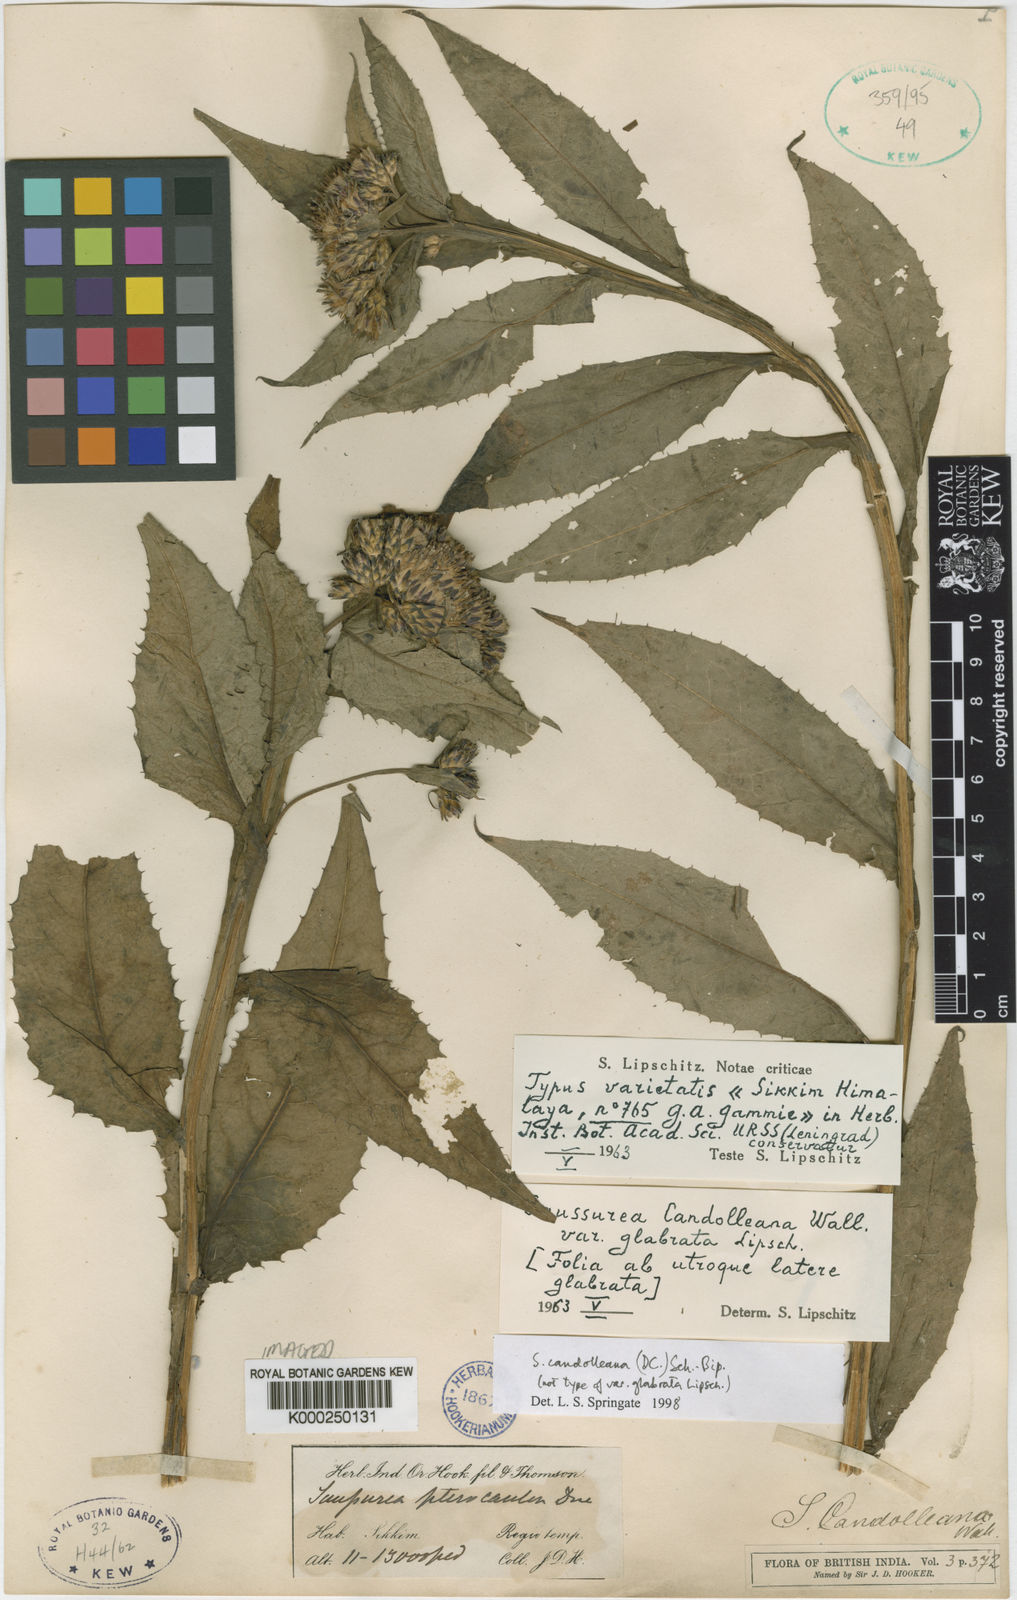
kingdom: Plantae
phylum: Tracheophyta
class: Magnoliopsida
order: Asterales
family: Asteraceae
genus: Saussurea
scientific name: Saussurea candolleana
